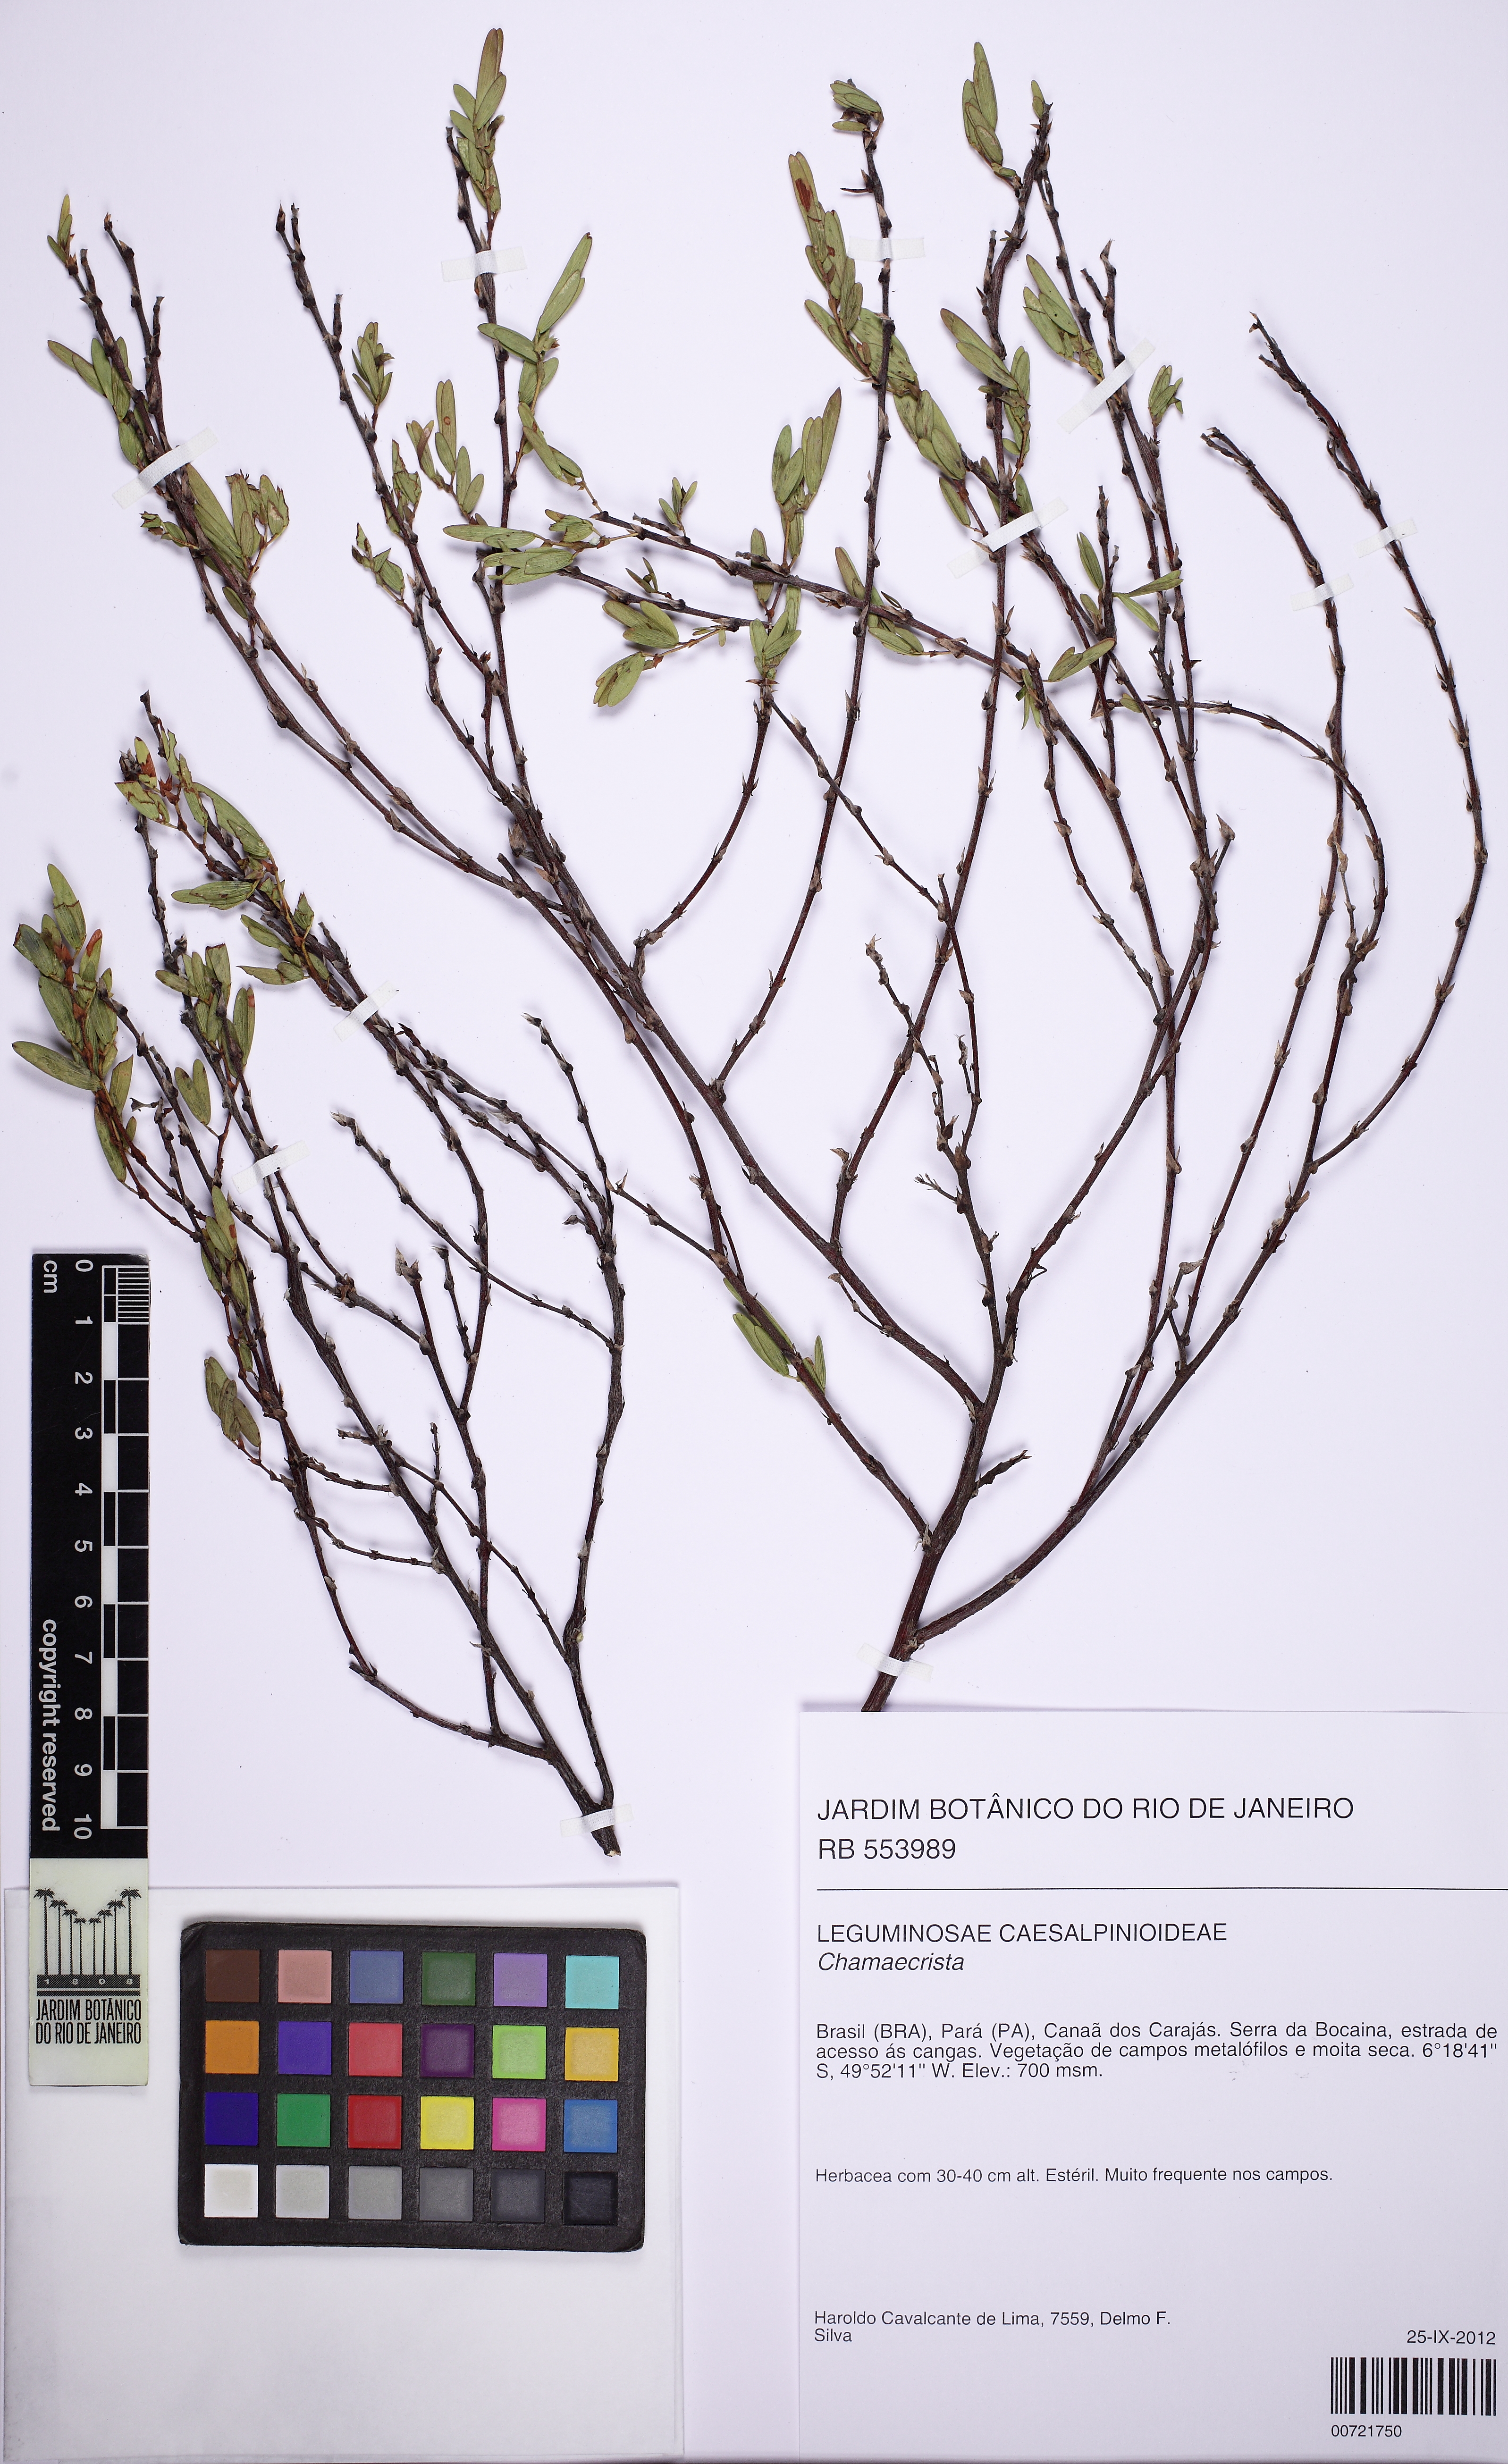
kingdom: Plantae
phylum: Tracheophyta
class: Magnoliopsida
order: Fabales
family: Fabaceae
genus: Chamaecrista
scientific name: Chamaecrista langsdorffii
